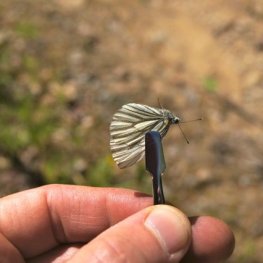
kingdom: Animalia
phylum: Arthropoda
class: Insecta
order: Lepidoptera
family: Pieridae
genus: Pieris
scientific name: Pieris oleracea
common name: Mustard White
